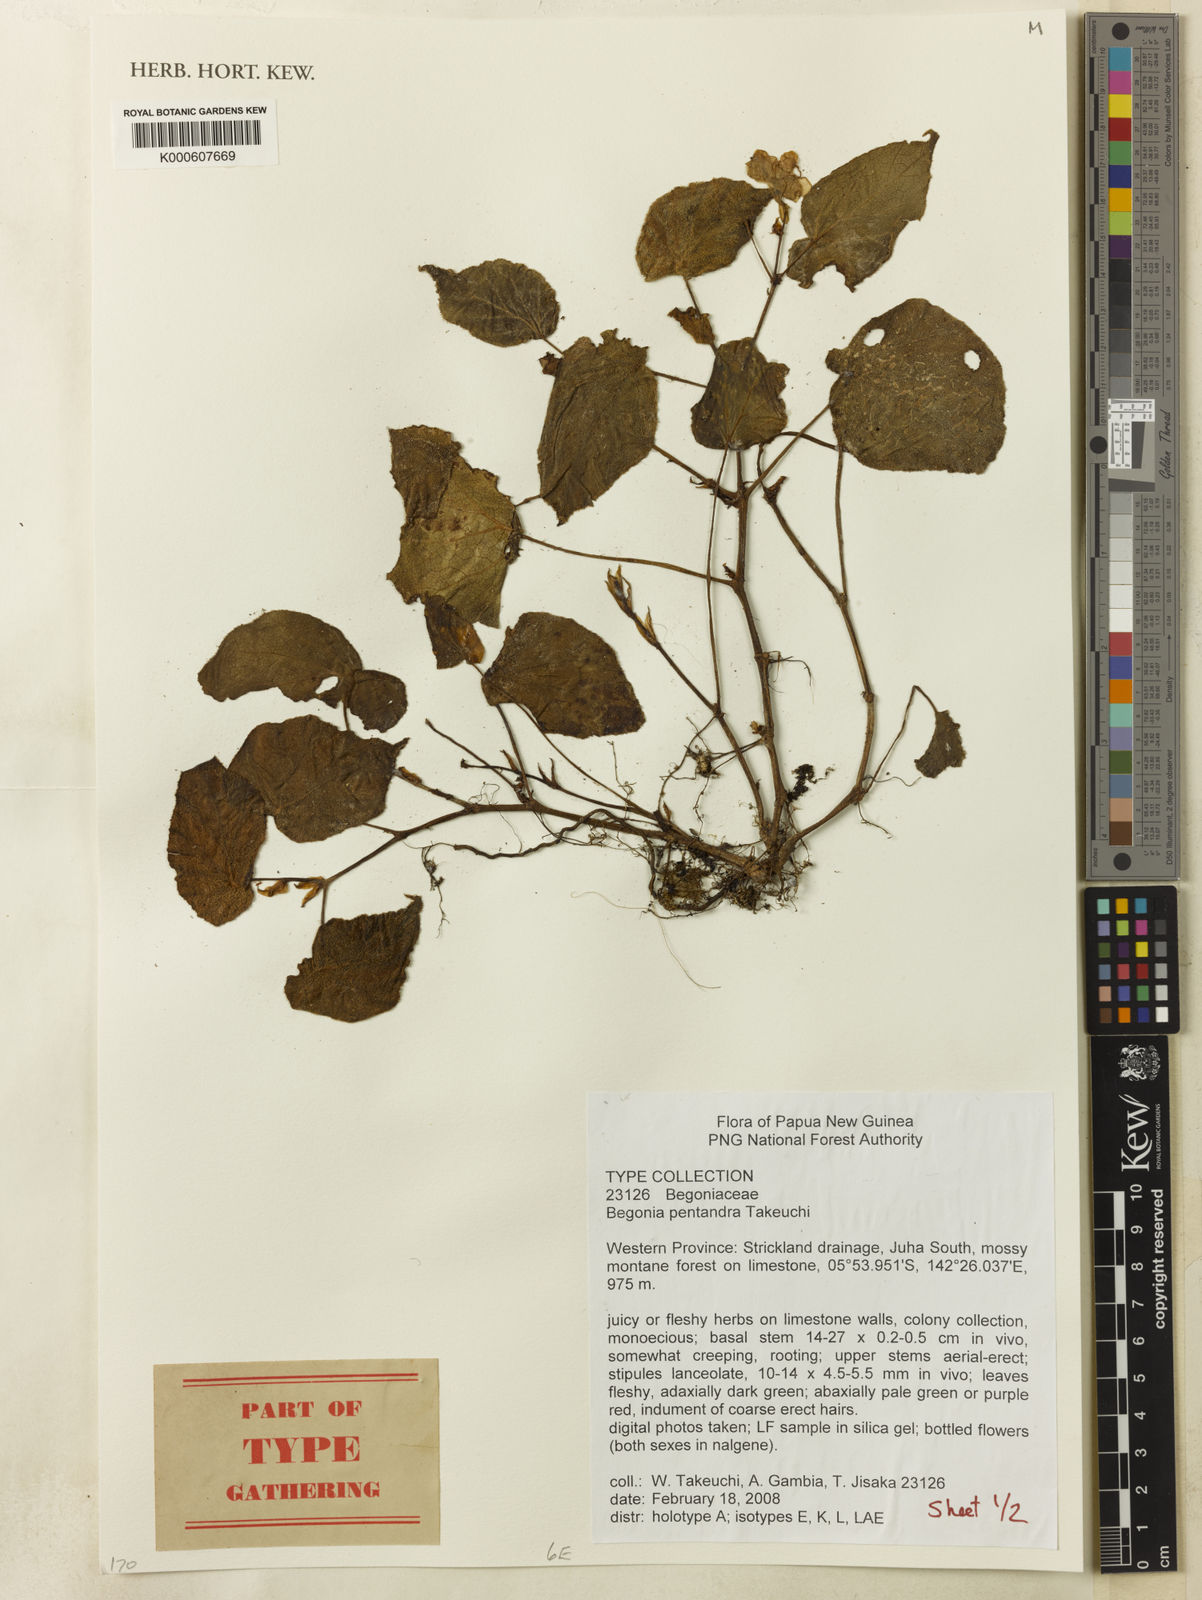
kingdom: Plantae
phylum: Tracheophyta
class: Magnoliopsida
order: Cucurbitales
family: Begoniaceae
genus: Begonia
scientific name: Begonia pentandra
